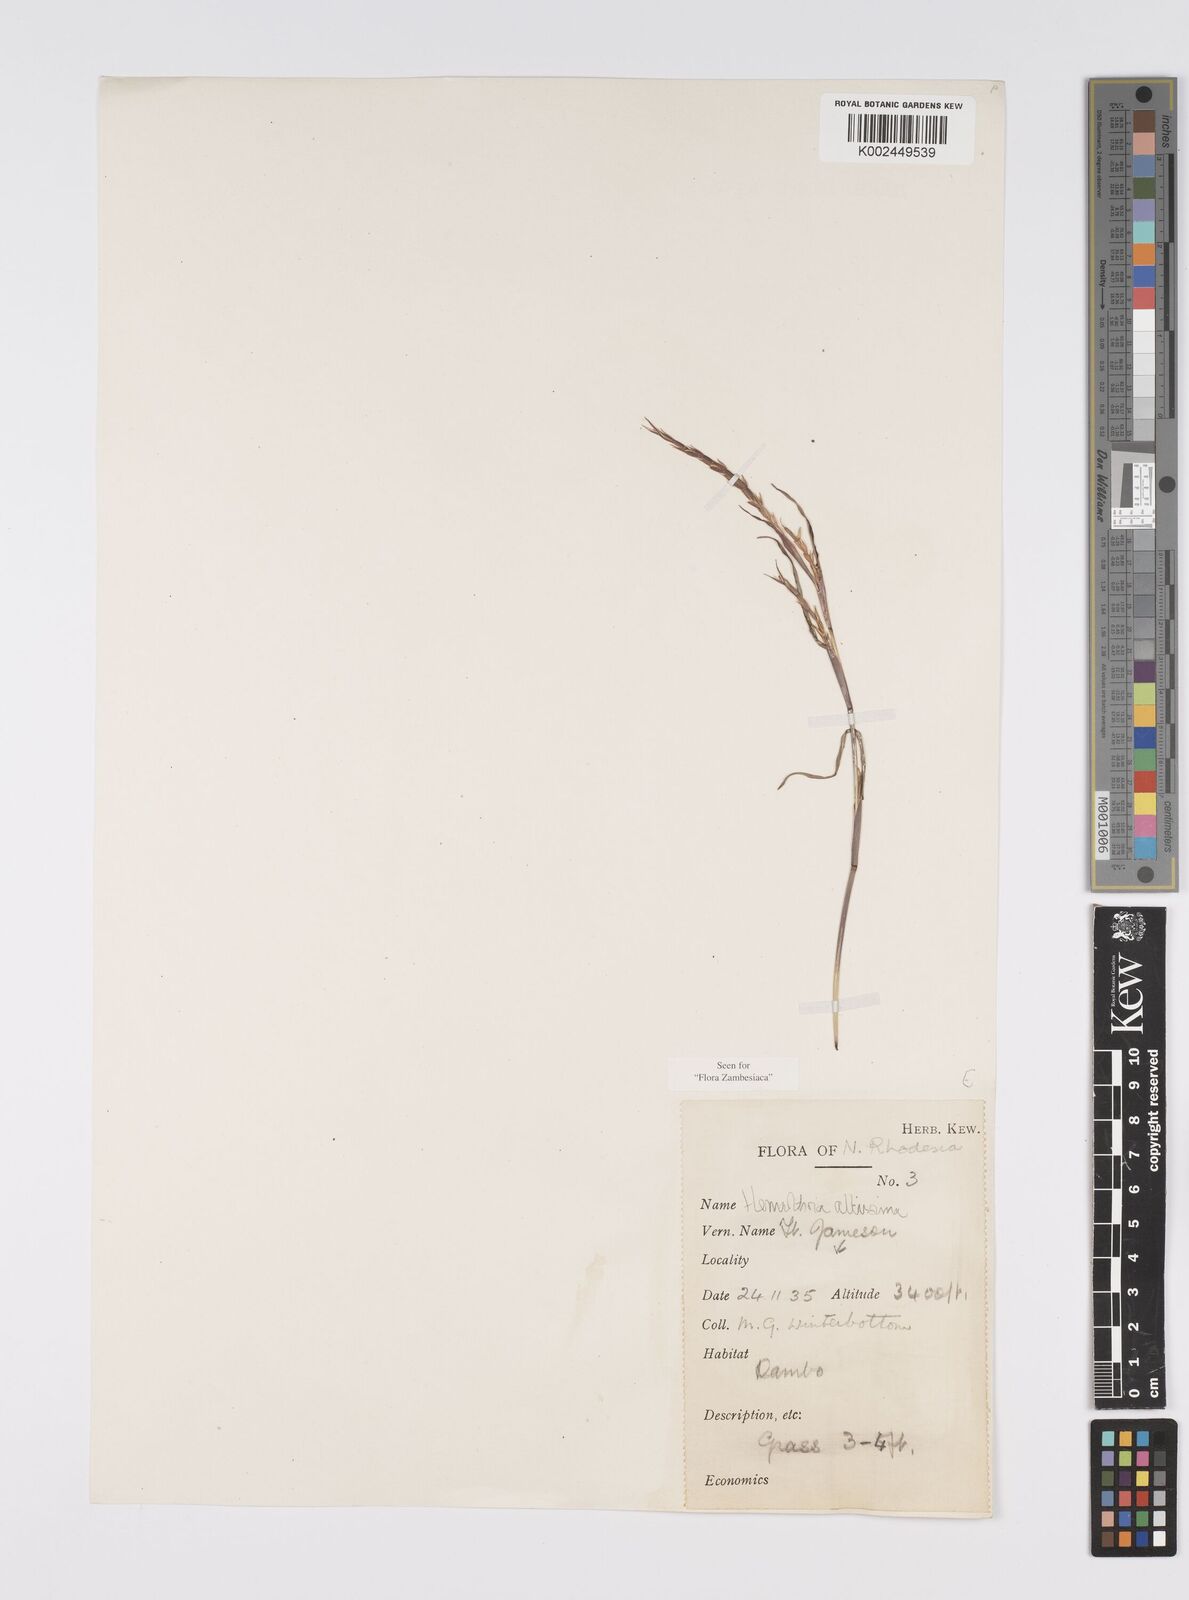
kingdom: Plantae
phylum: Tracheophyta
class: Liliopsida
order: Poales
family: Poaceae
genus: Hemarthria
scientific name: Hemarthria altissima
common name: African jointgrass
